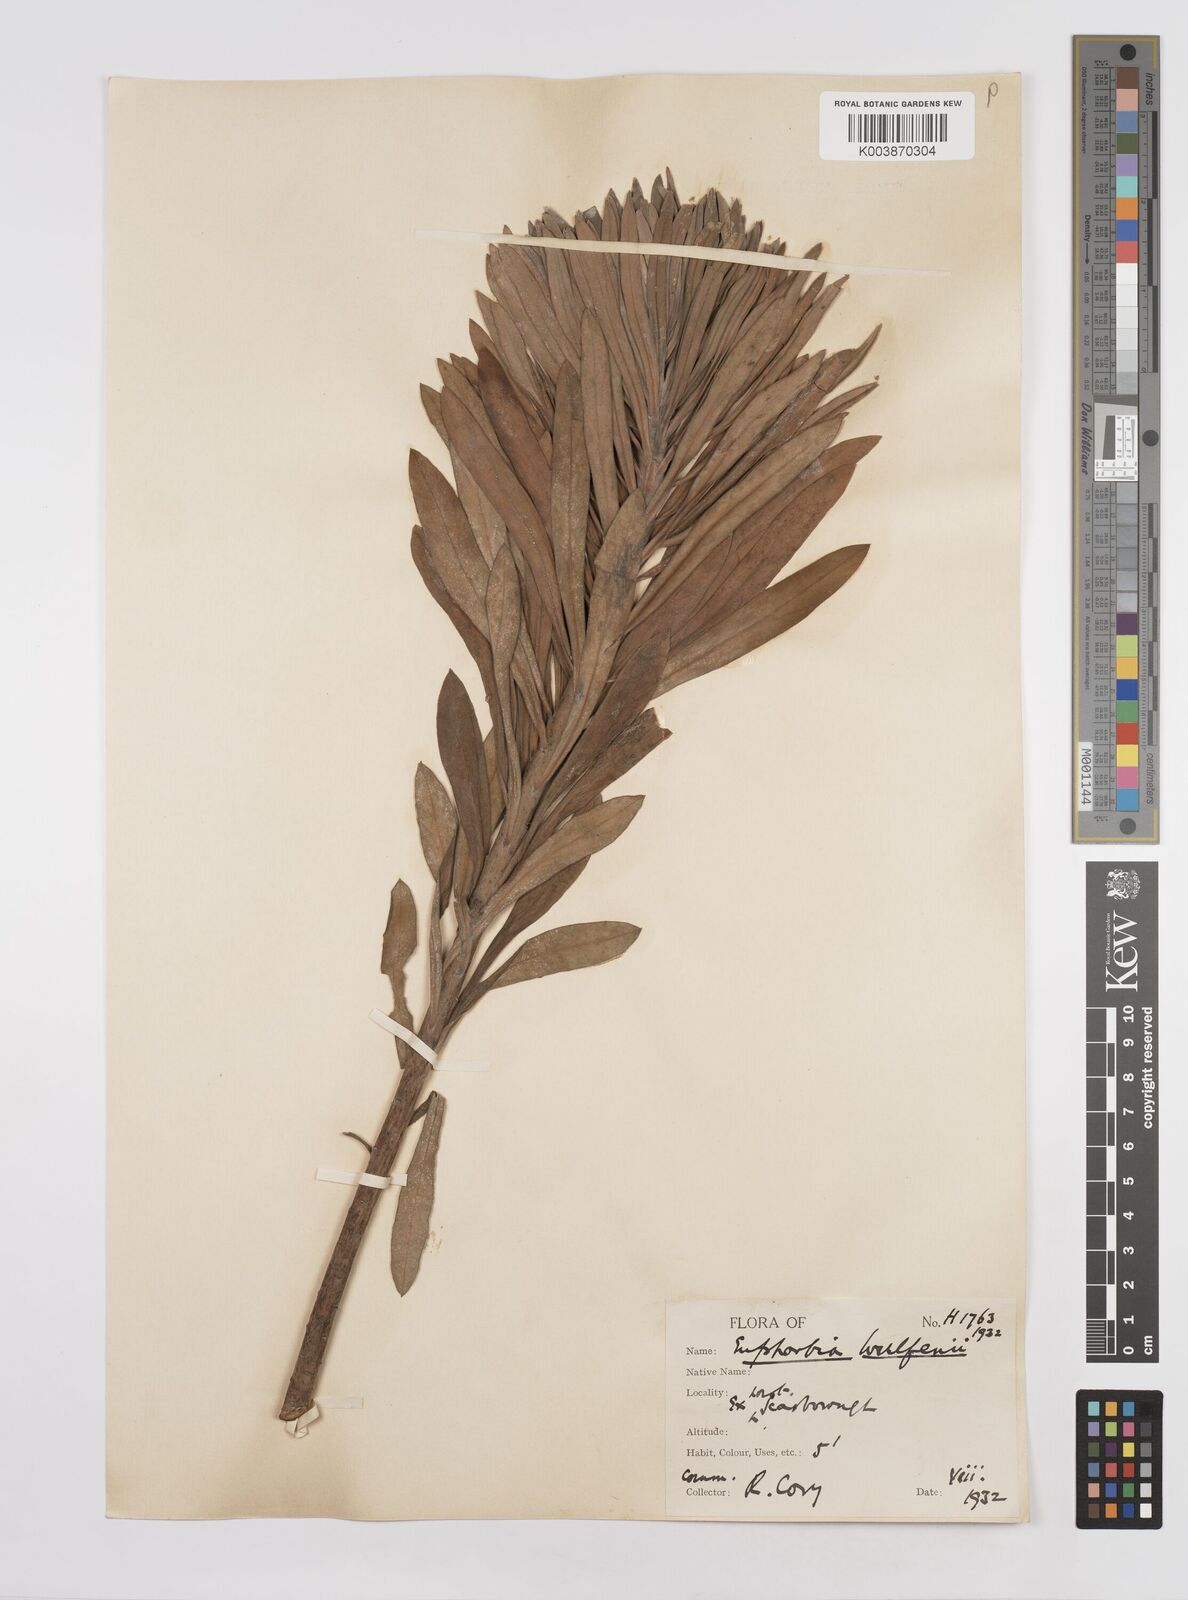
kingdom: Plantae
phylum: Tracheophyta
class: Magnoliopsida
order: Malpighiales
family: Euphorbiaceae
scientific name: Euphorbiaceae
